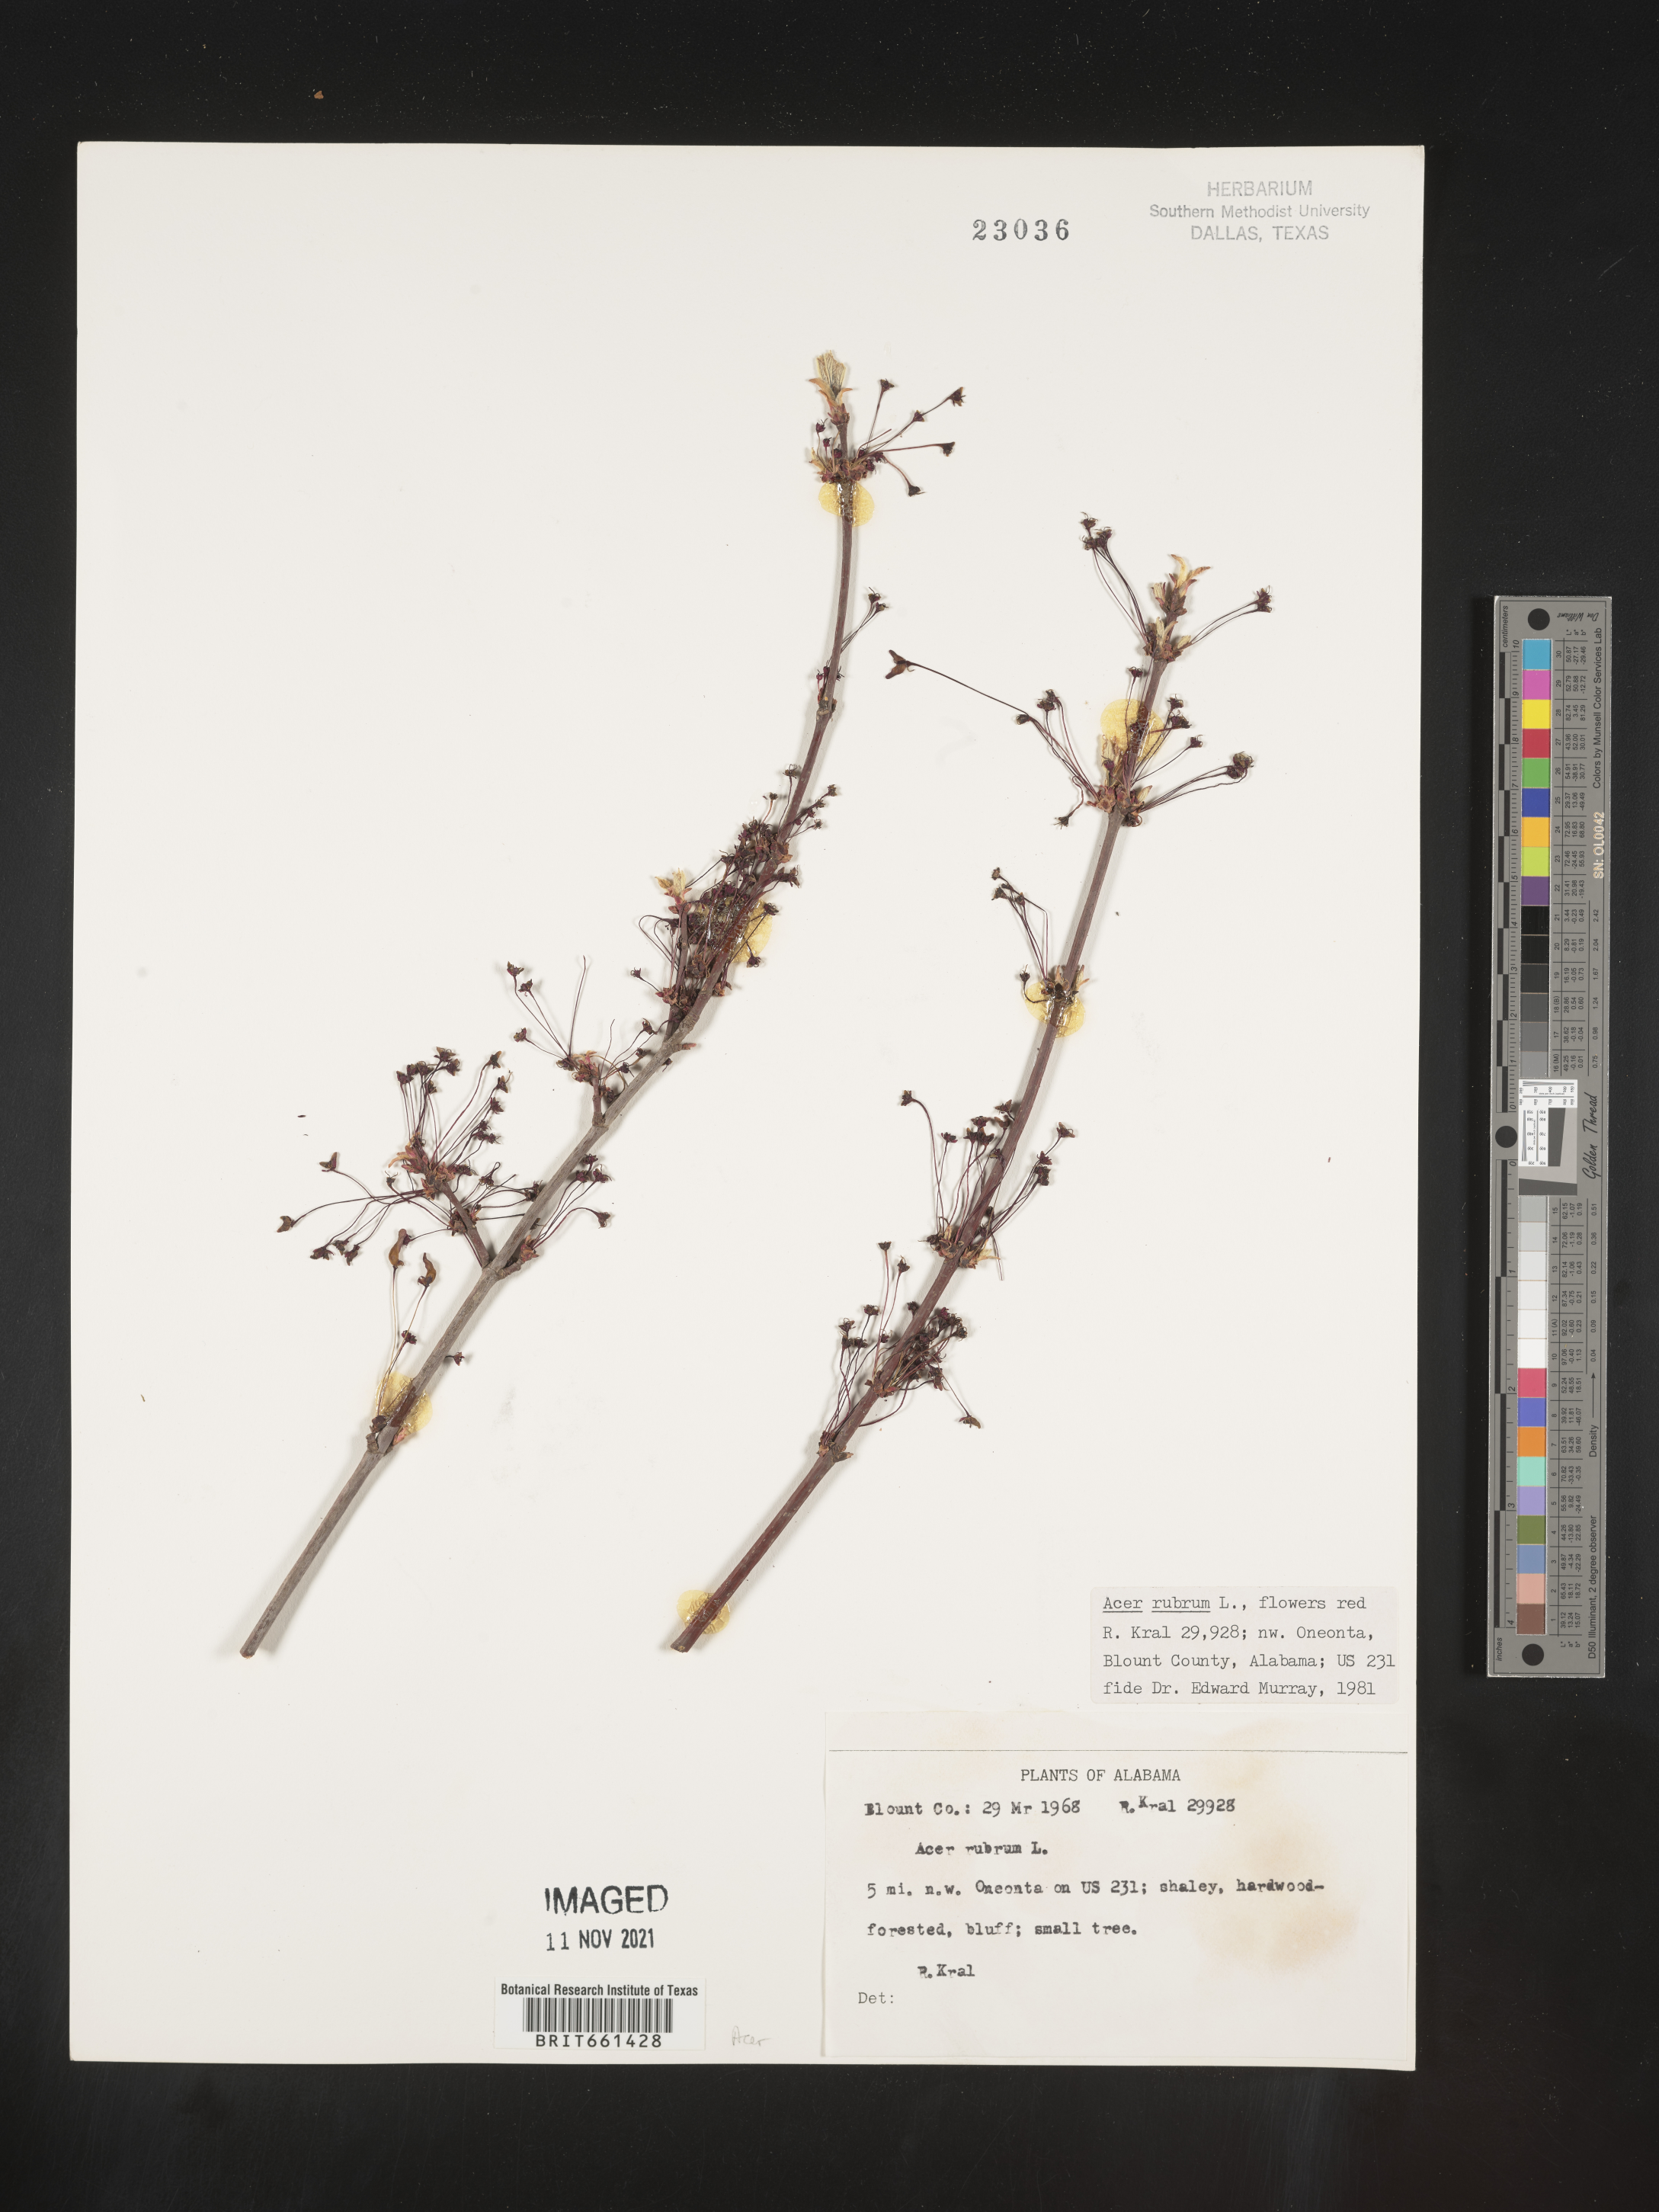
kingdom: Plantae
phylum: Tracheophyta
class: Magnoliopsida
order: Sapindales
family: Sapindaceae
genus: Acer
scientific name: Acer rubrum
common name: Red maple
